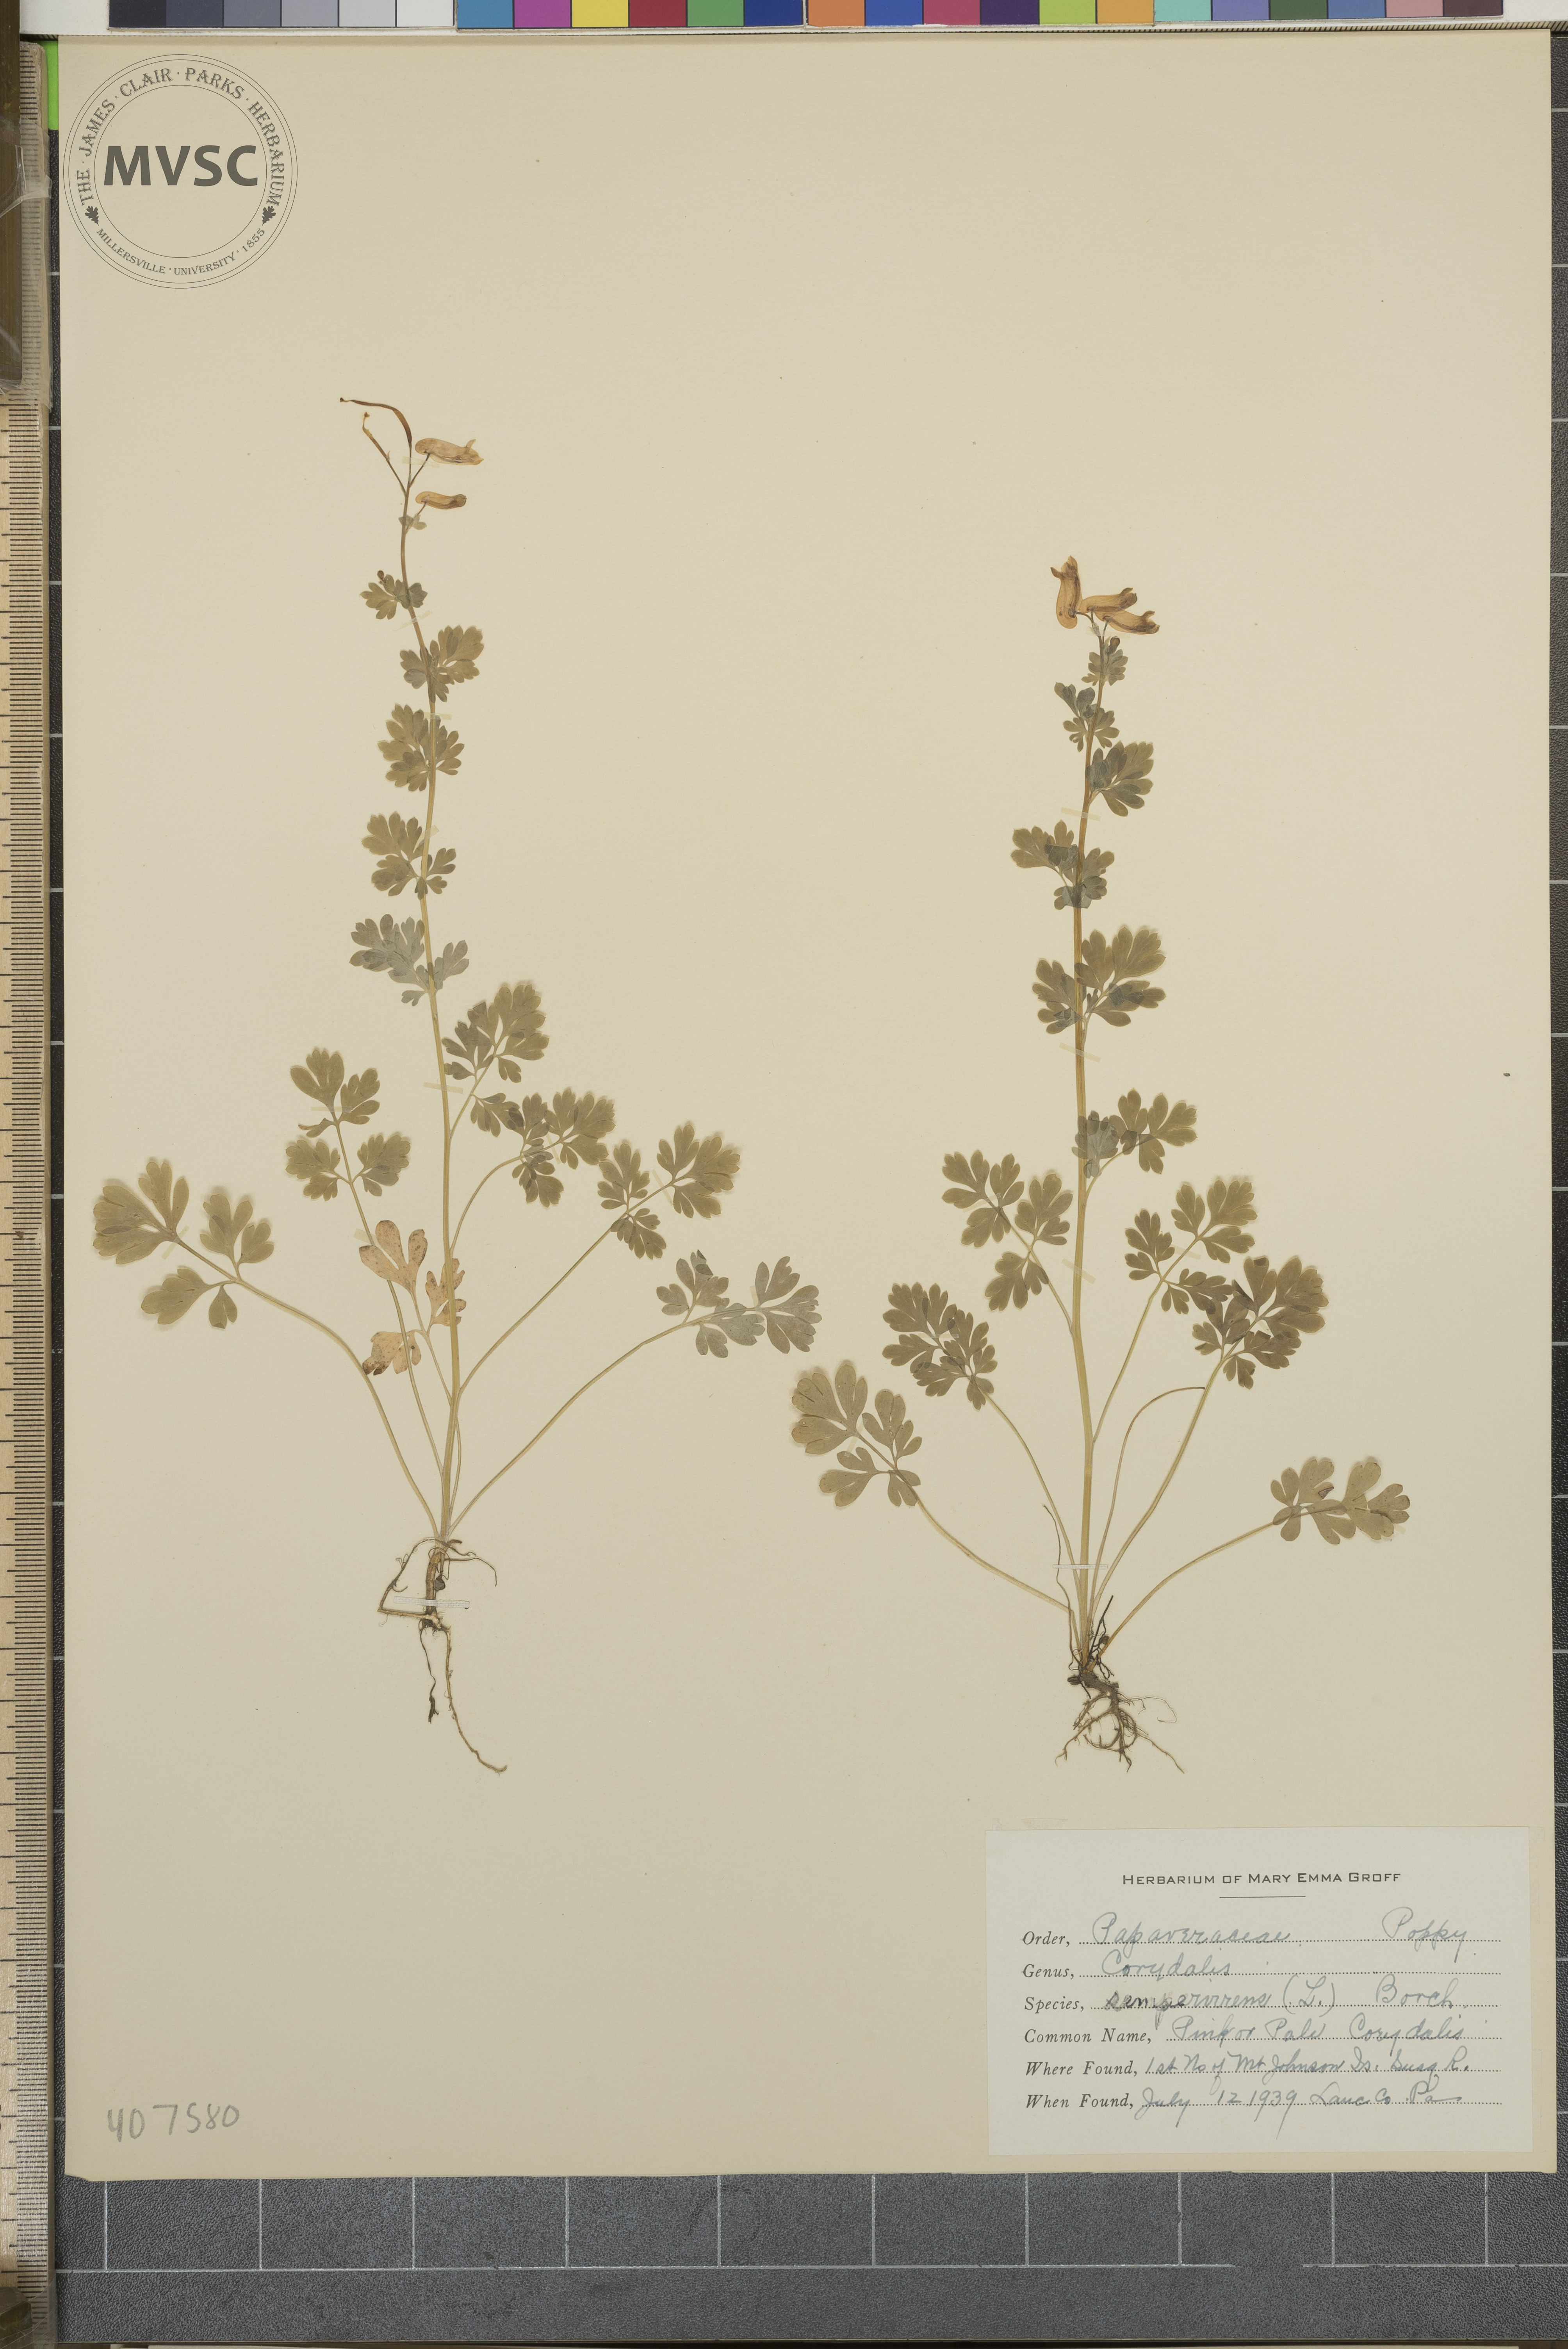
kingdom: Plantae
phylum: Tracheophyta
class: Magnoliopsida
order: Ranunculales
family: Papaveraceae
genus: Capnoides
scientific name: Capnoides sempervirens
